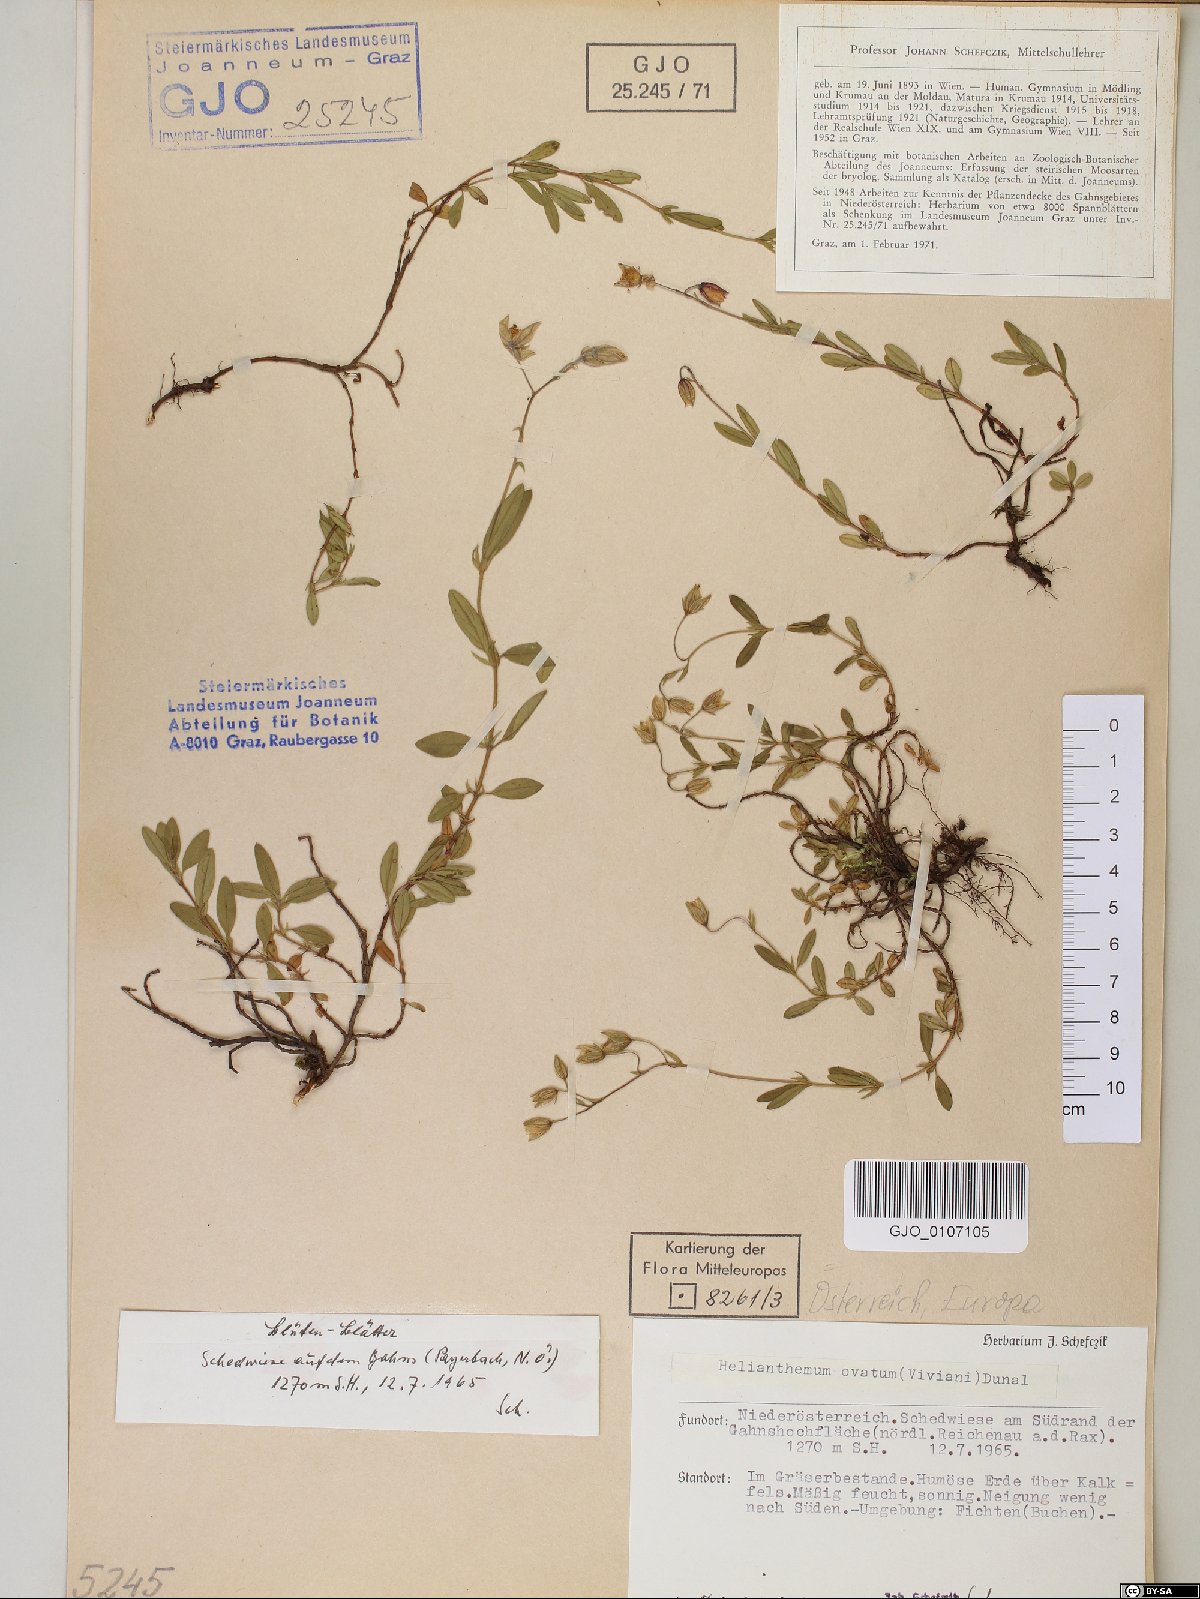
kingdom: Plantae
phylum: Tracheophyta
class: Magnoliopsida
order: Malvales
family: Cistaceae
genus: Helianthemum
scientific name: Helianthemum nummularium
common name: Common rock-rose
